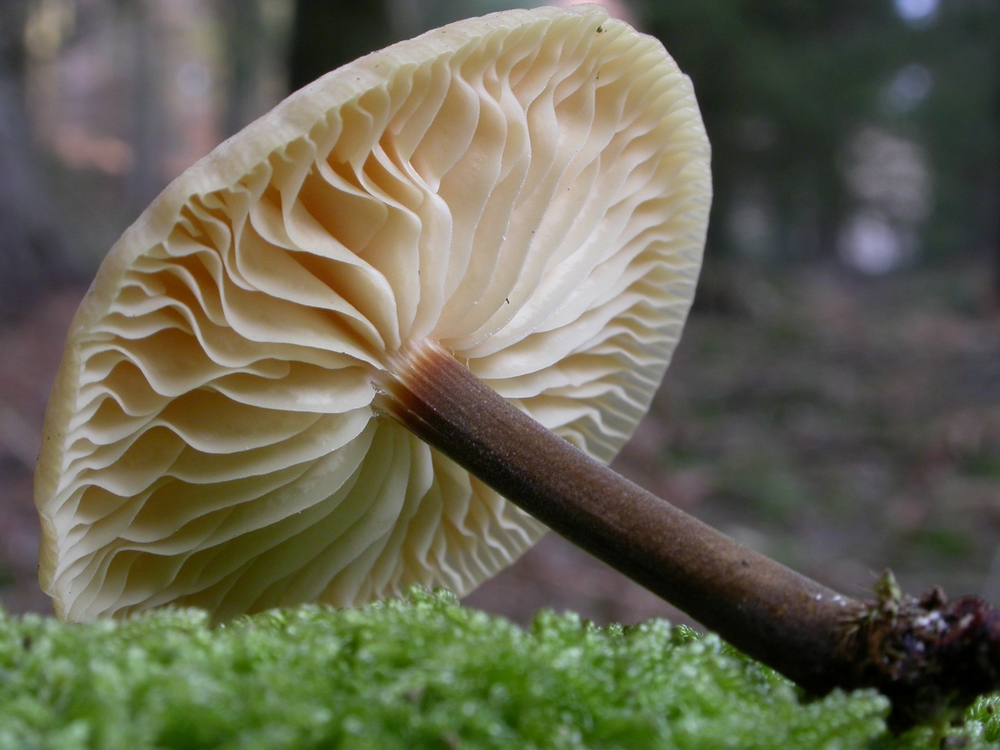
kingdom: Fungi
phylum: Basidiomycota
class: Agaricomycetes
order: Agaricales
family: Physalacriaceae
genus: Flammulina
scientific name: Flammulina elastica
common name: pile-fløjlsfod
